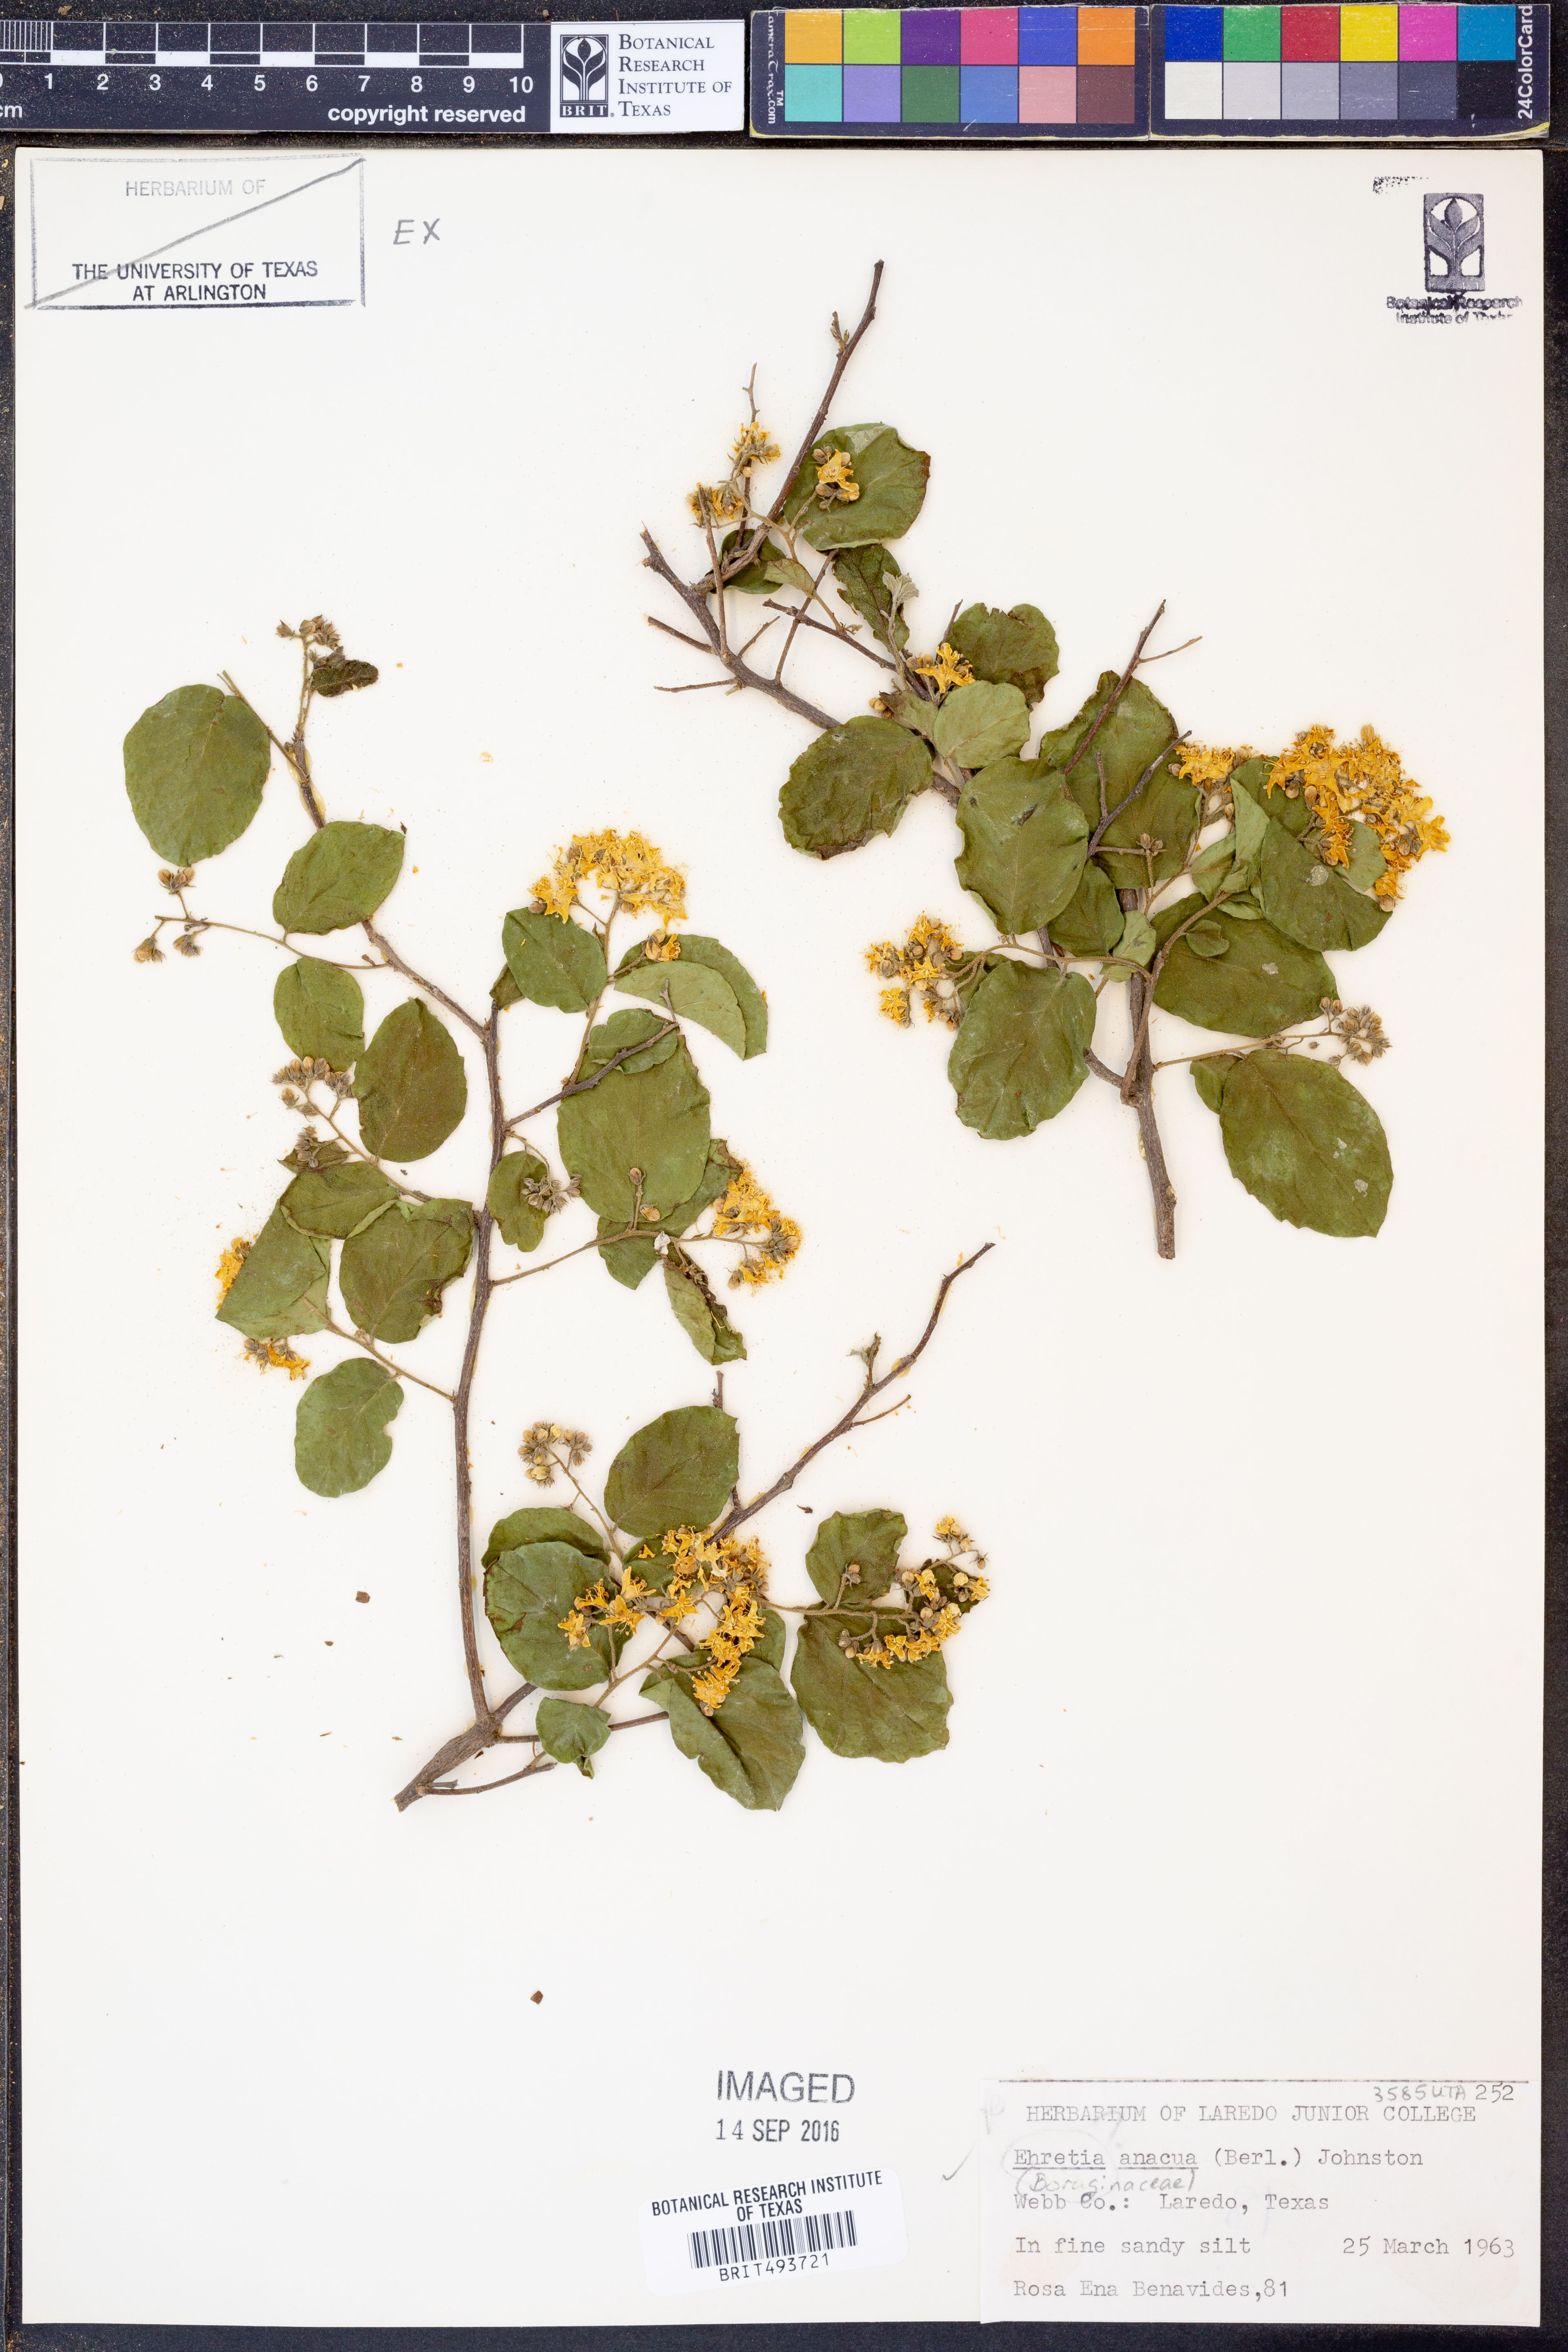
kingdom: Plantae
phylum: Tracheophyta
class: Magnoliopsida
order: Boraginales
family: Ehretiaceae
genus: Ehretia
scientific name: Ehretia anacua
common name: Sugarberry
